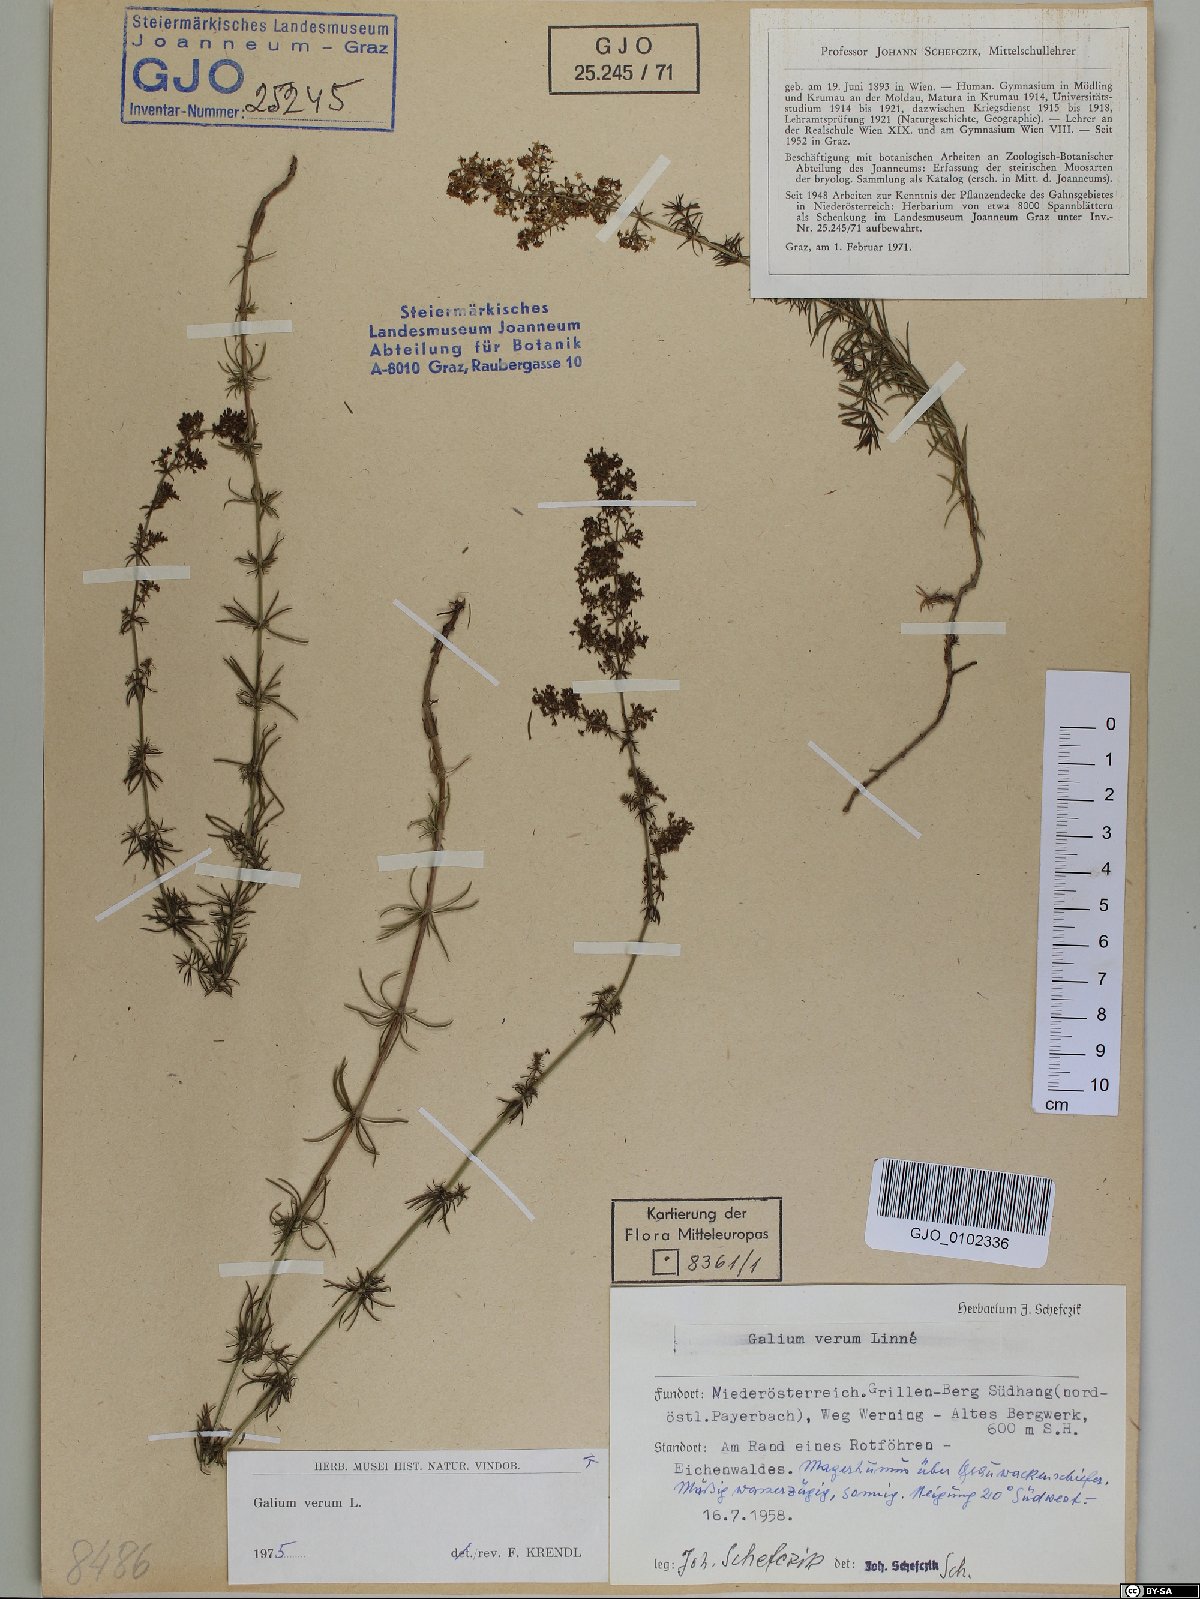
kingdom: Plantae
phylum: Tracheophyta
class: Magnoliopsida
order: Gentianales
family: Rubiaceae
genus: Galium
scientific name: Galium verum
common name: Lady's bedstraw
